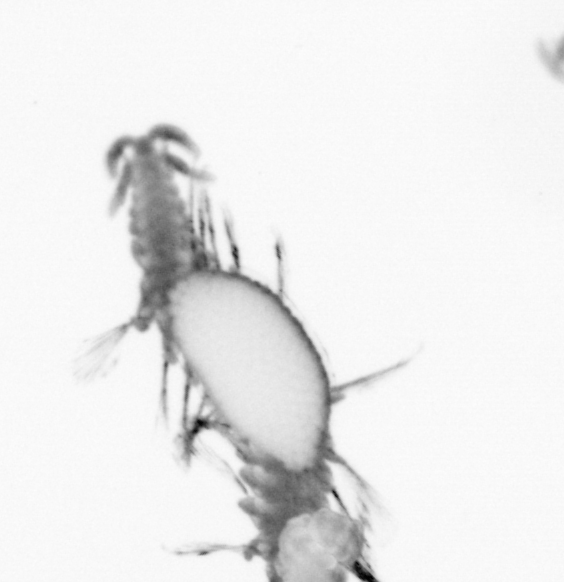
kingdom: Animalia
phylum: Annelida
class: Polychaeta
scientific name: Polychaeta
